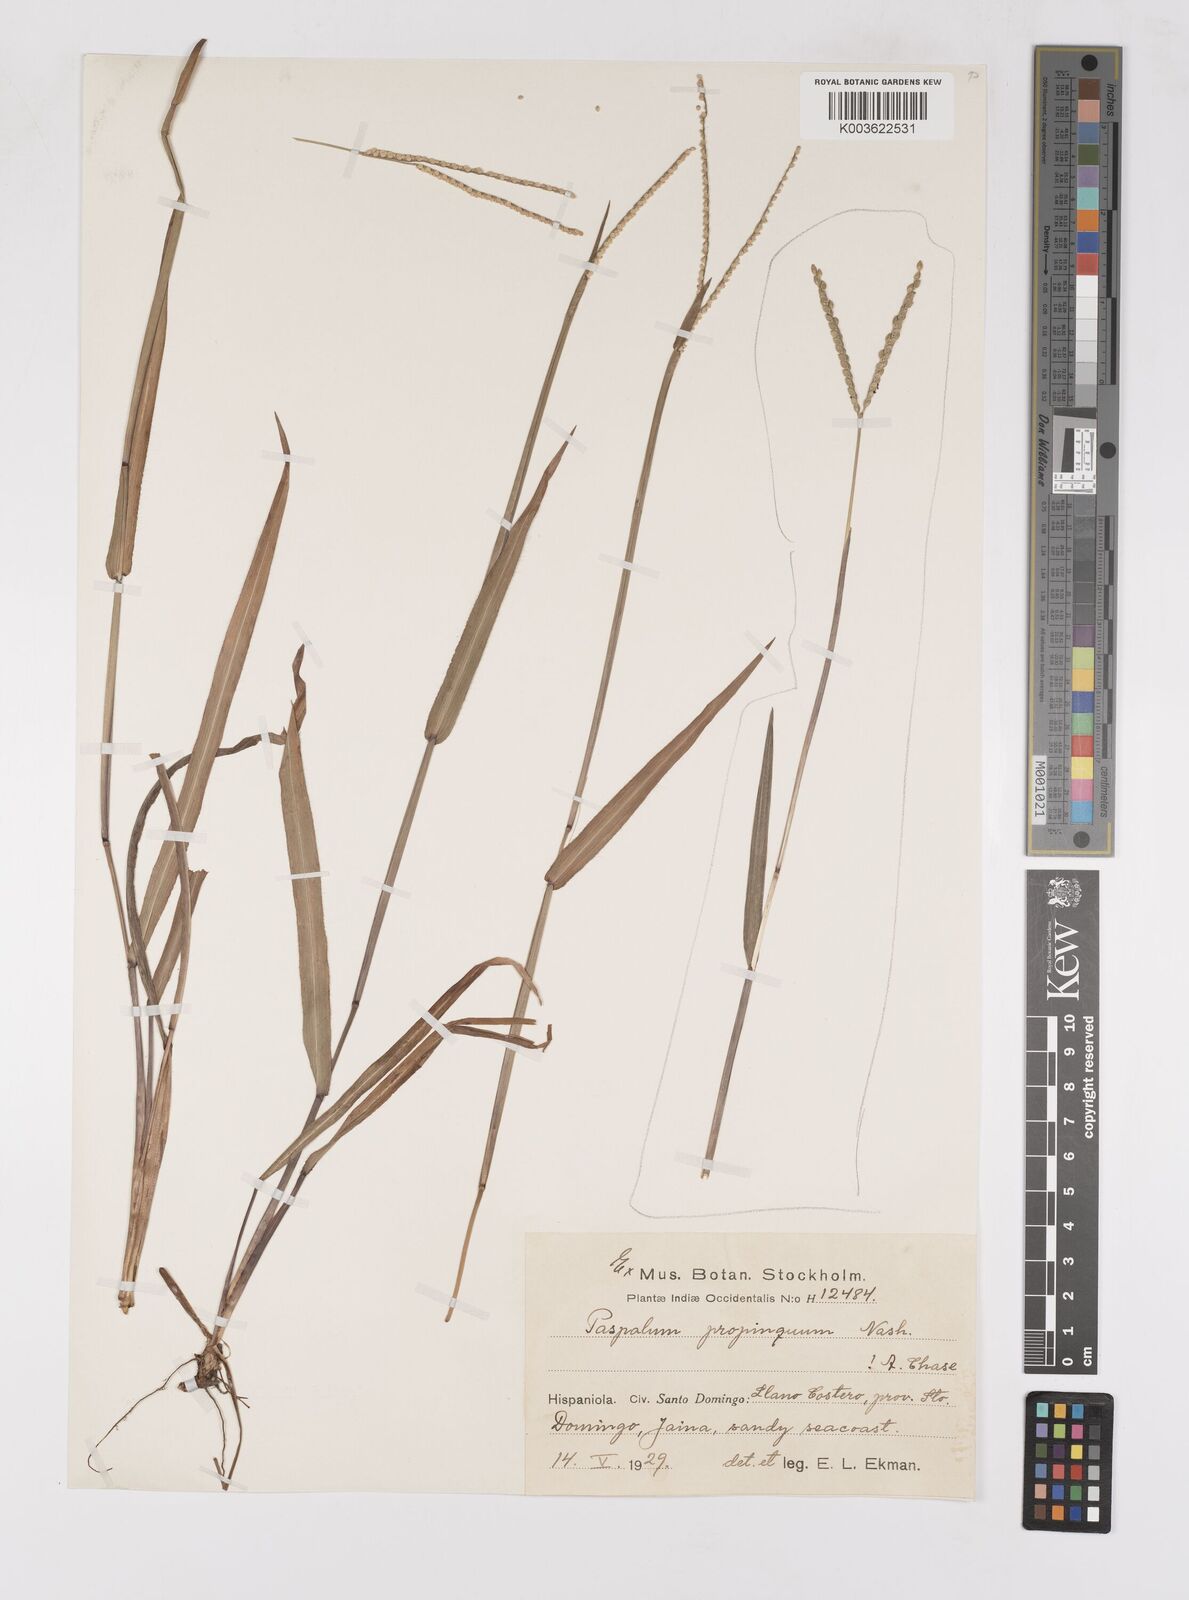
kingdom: Plantae
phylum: Tracheophyta
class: Liliopsida
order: Poales
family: Poaceae
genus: Paspalum
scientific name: Paspalum
